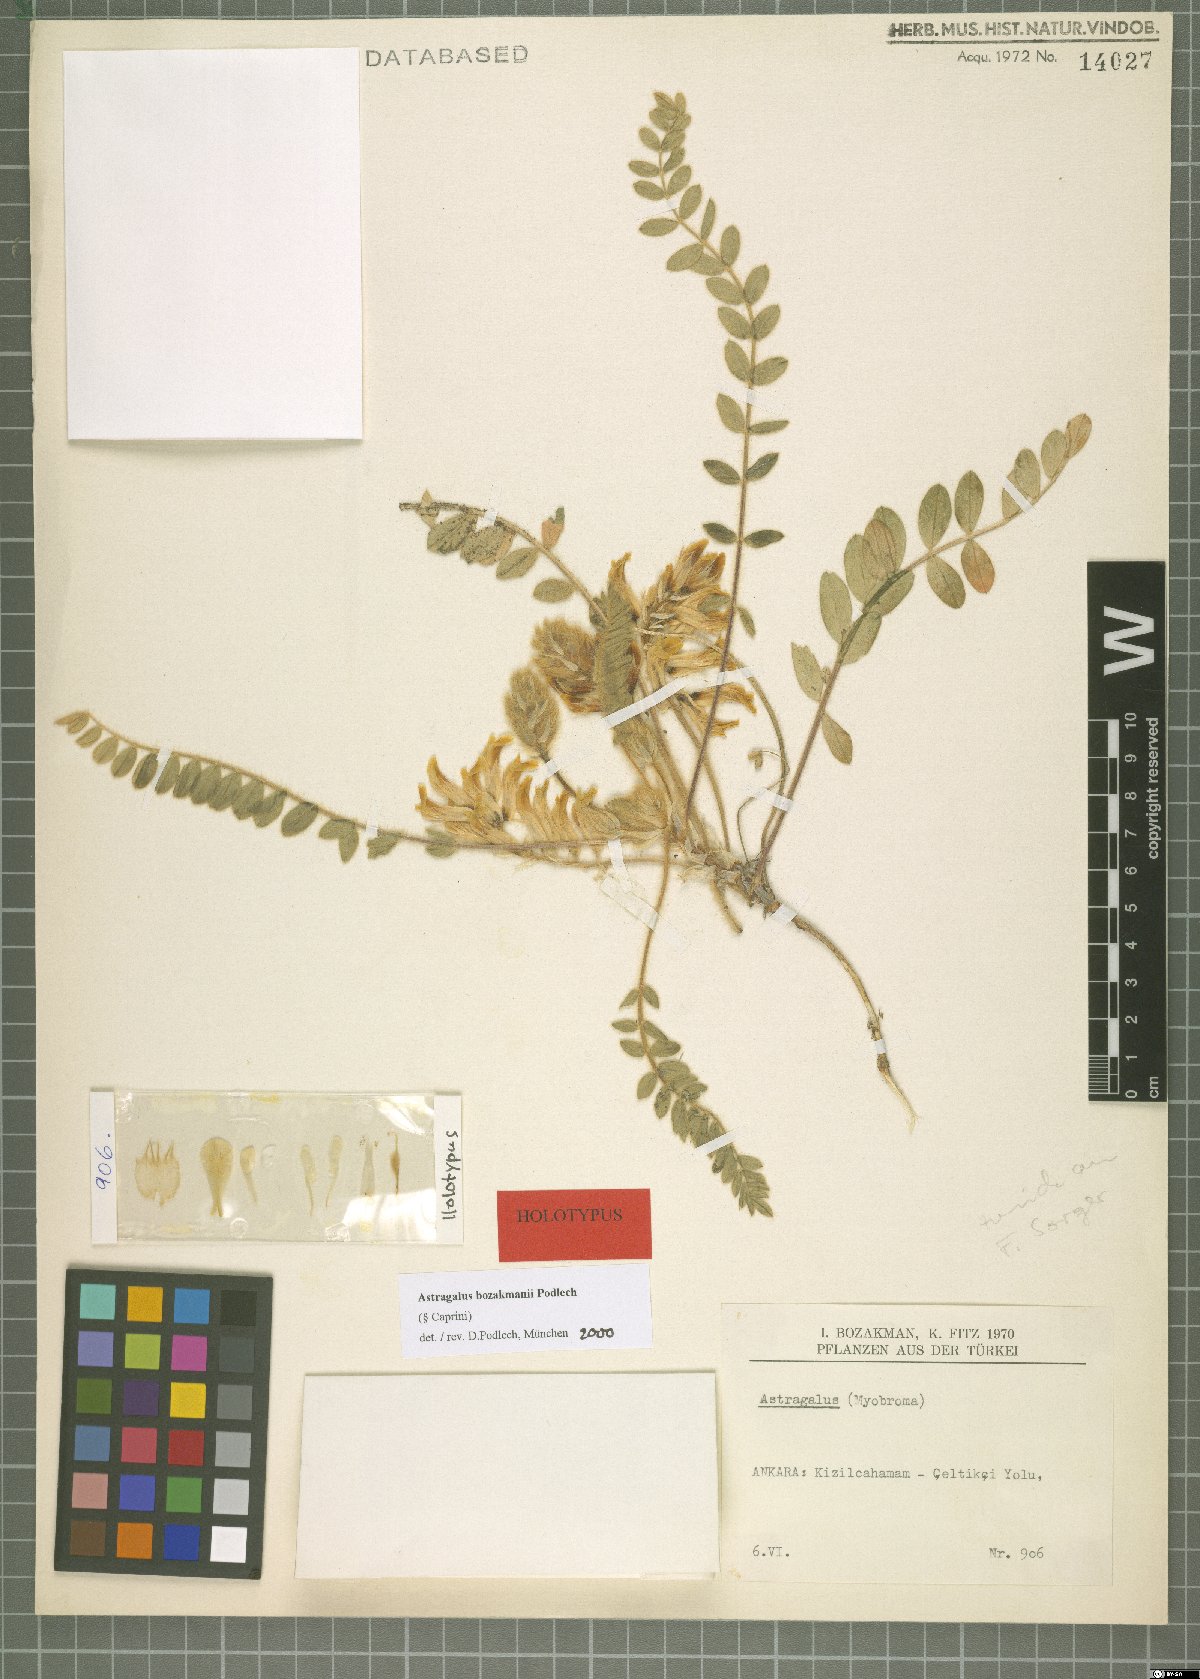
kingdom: Plantae
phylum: Tracheophyta
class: Magnoliopsida
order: Fabales
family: Fabaceae
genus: Astragalus
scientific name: Astragalus bozakmanii
